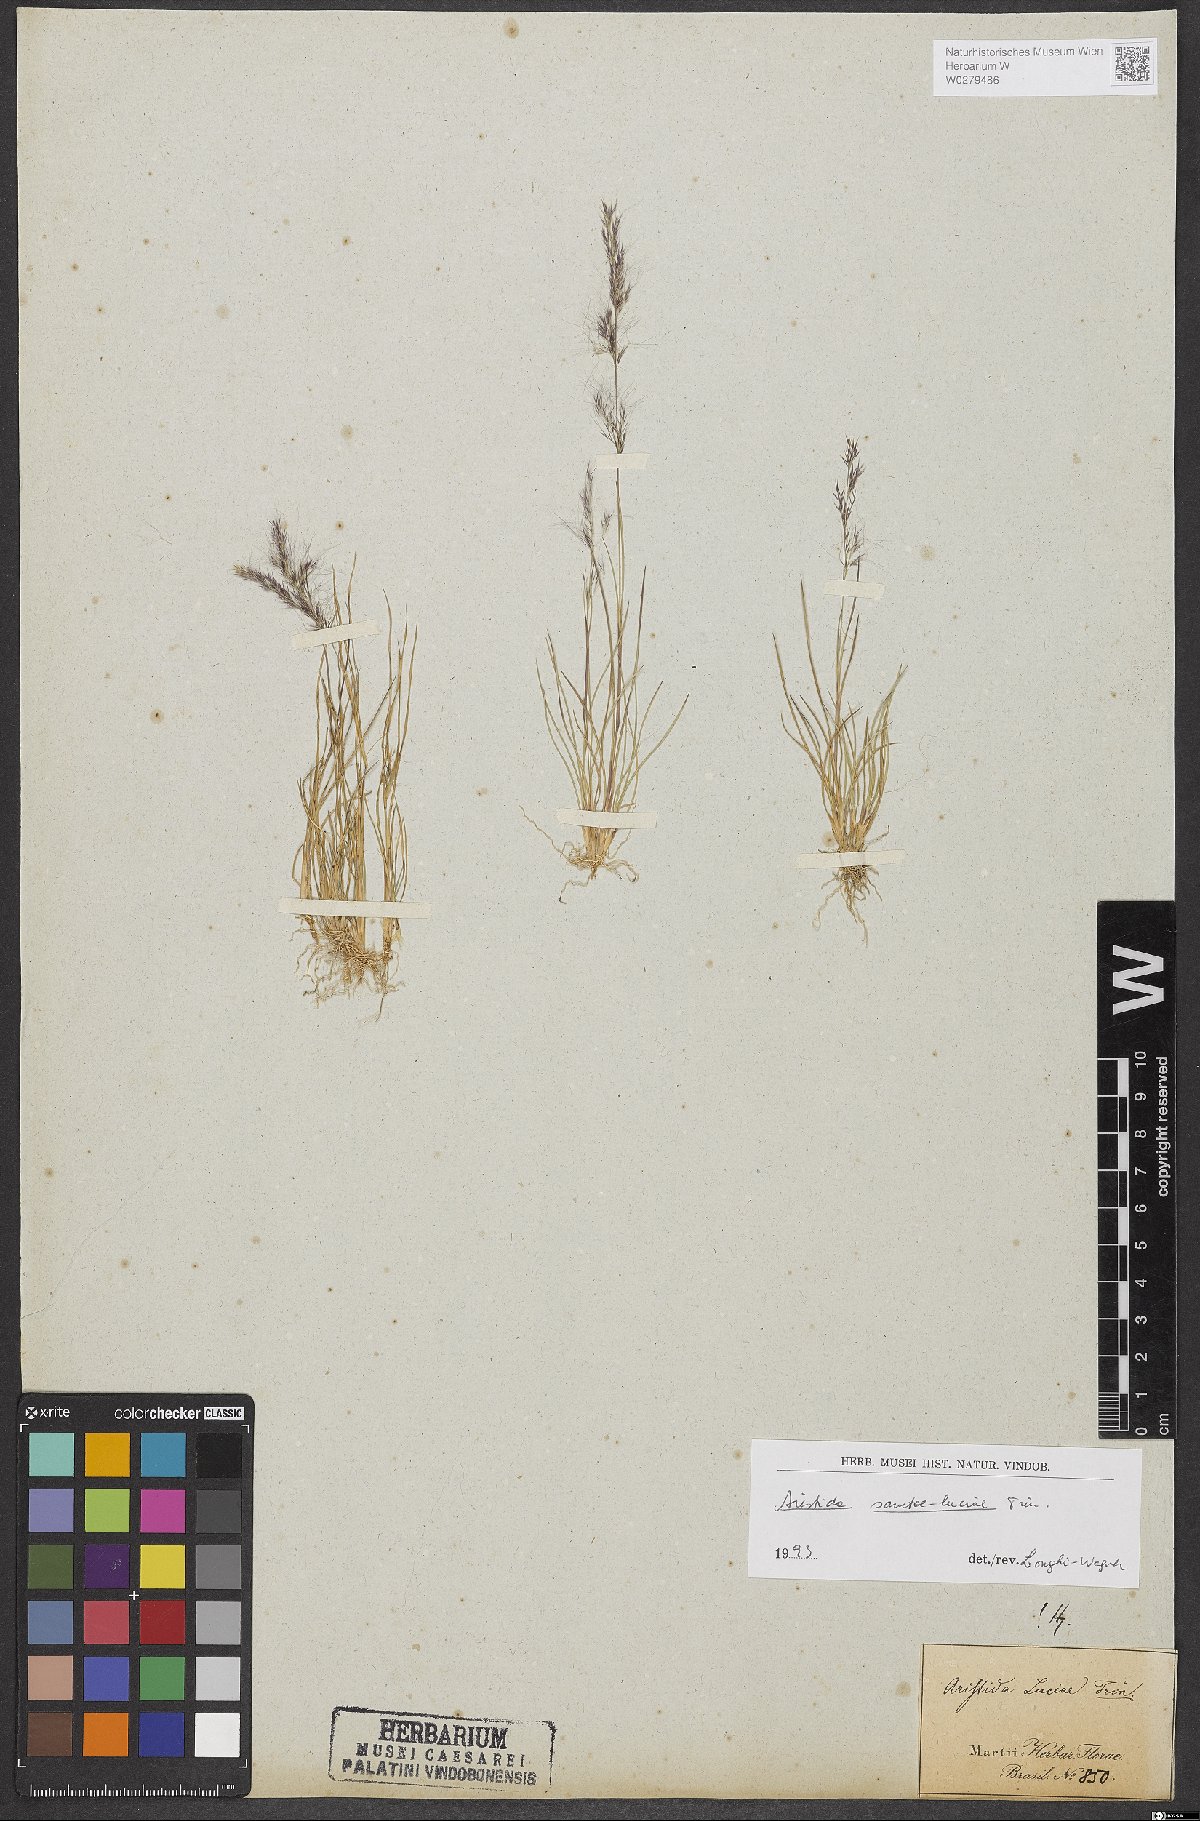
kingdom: Plantae
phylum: Tracheophyta
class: Liliopsida
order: Poales
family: Poaceae
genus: Aristida
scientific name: Aristida sanctae-luciae
